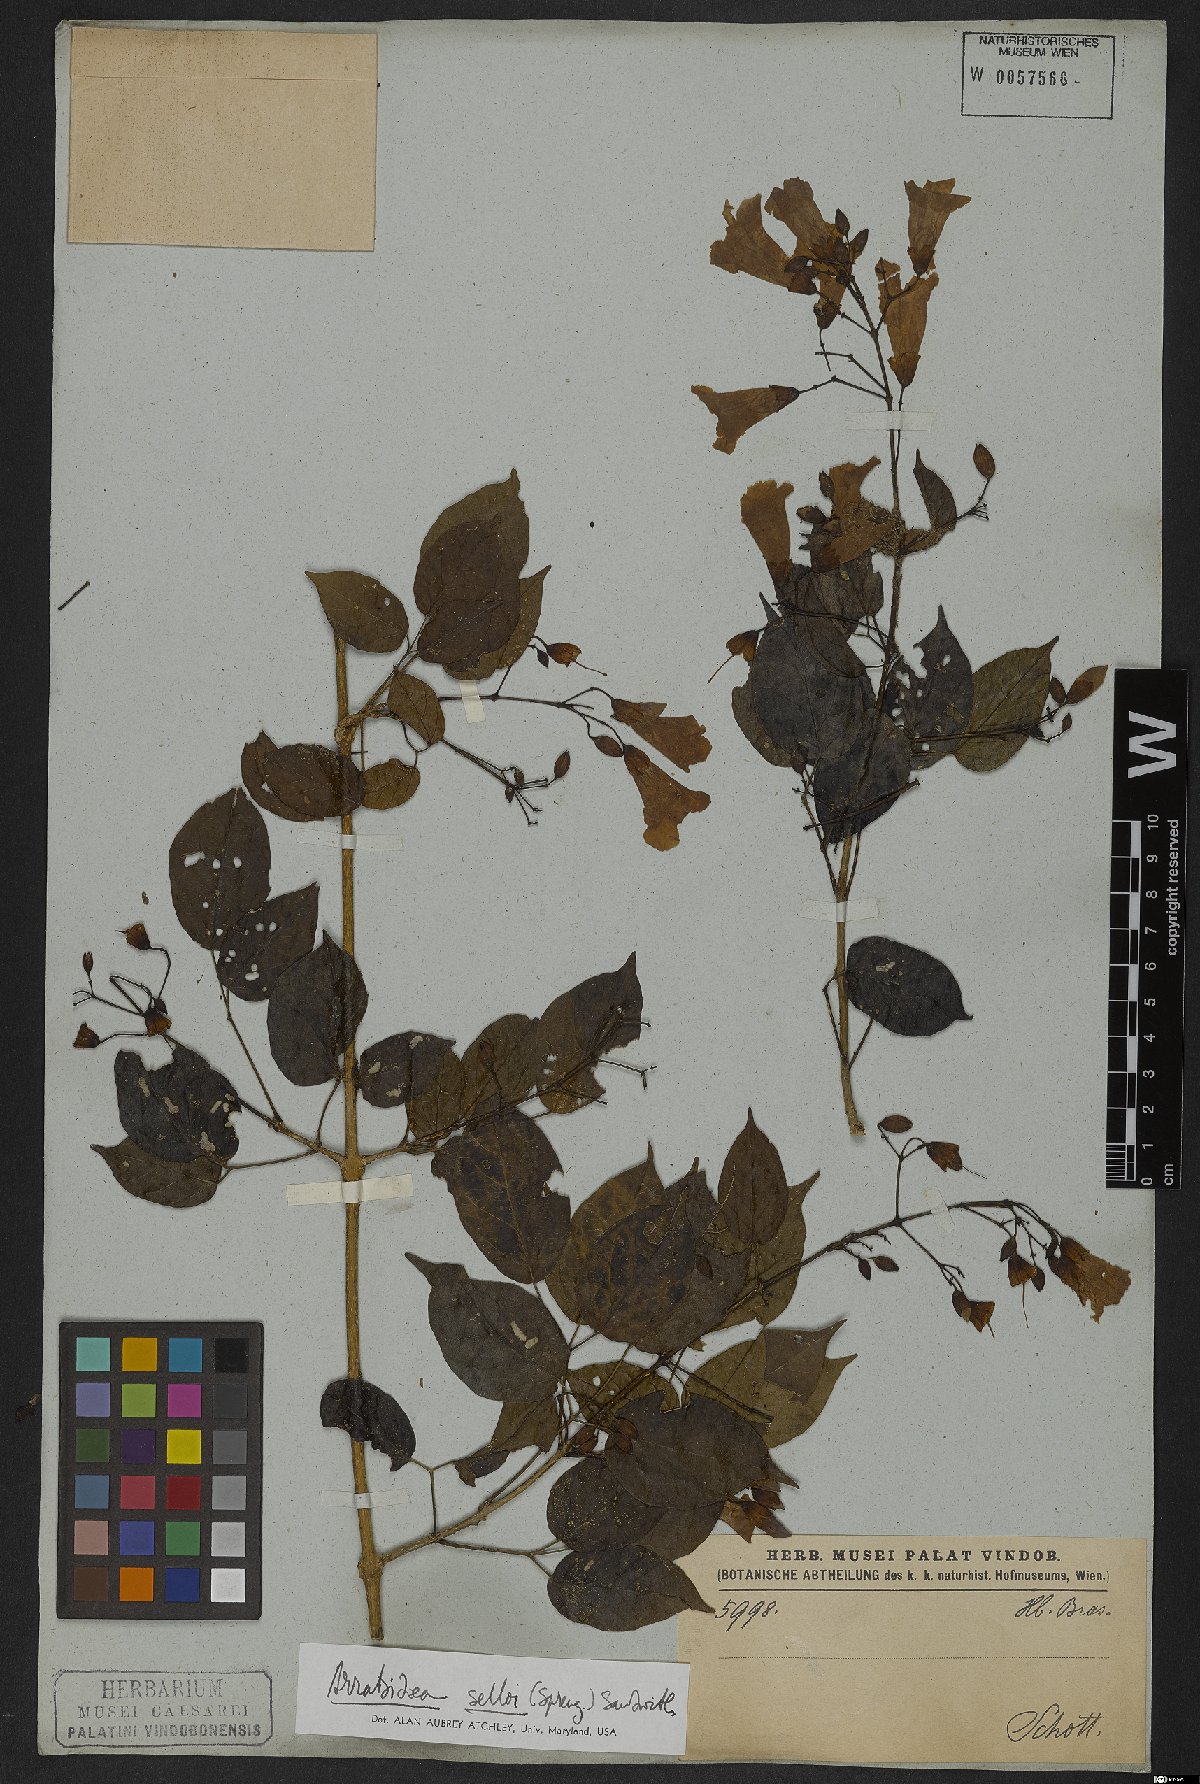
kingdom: Plantae
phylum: Tracheophyta
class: Magnoliopsida
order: Lamiales
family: Bignoniaceae
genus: Tanaecium
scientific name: Tanaecium selloi
